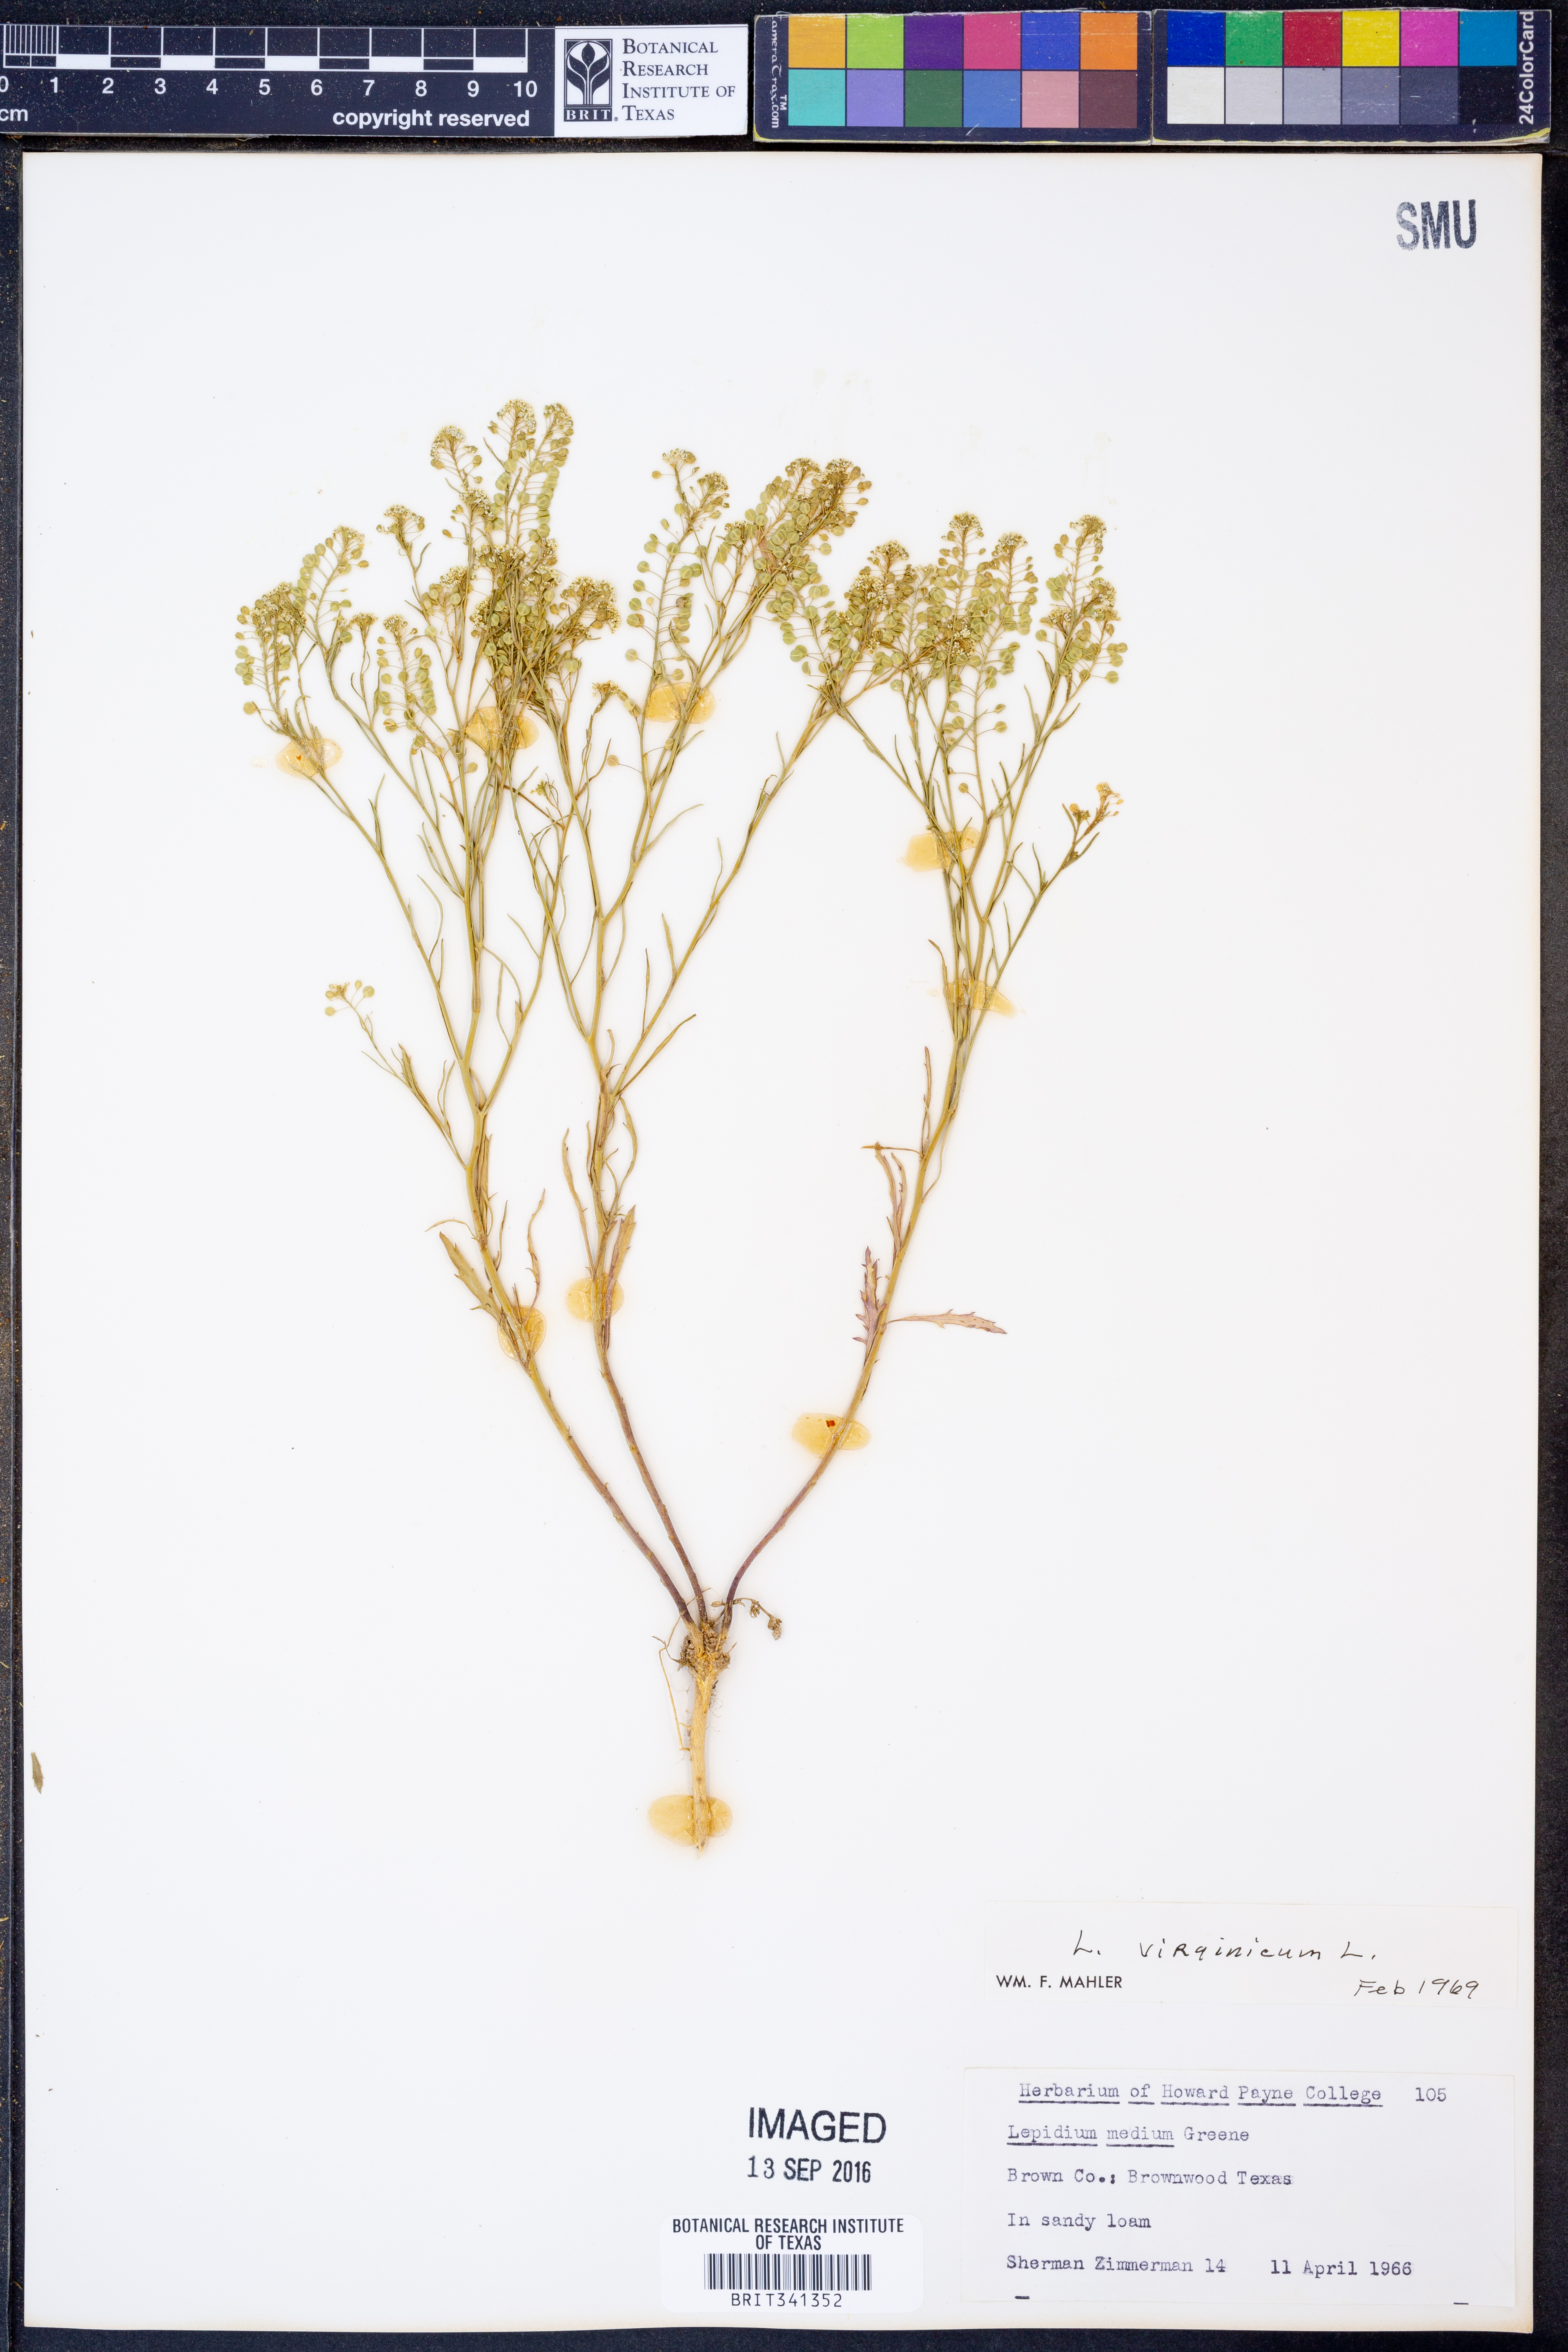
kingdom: Plantae
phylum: Tracheophyta
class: Magnoliopsida
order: Brassicales
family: Brassicaceae
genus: Lepidium
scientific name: Lepidium virginicum
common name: Least pepperwort
